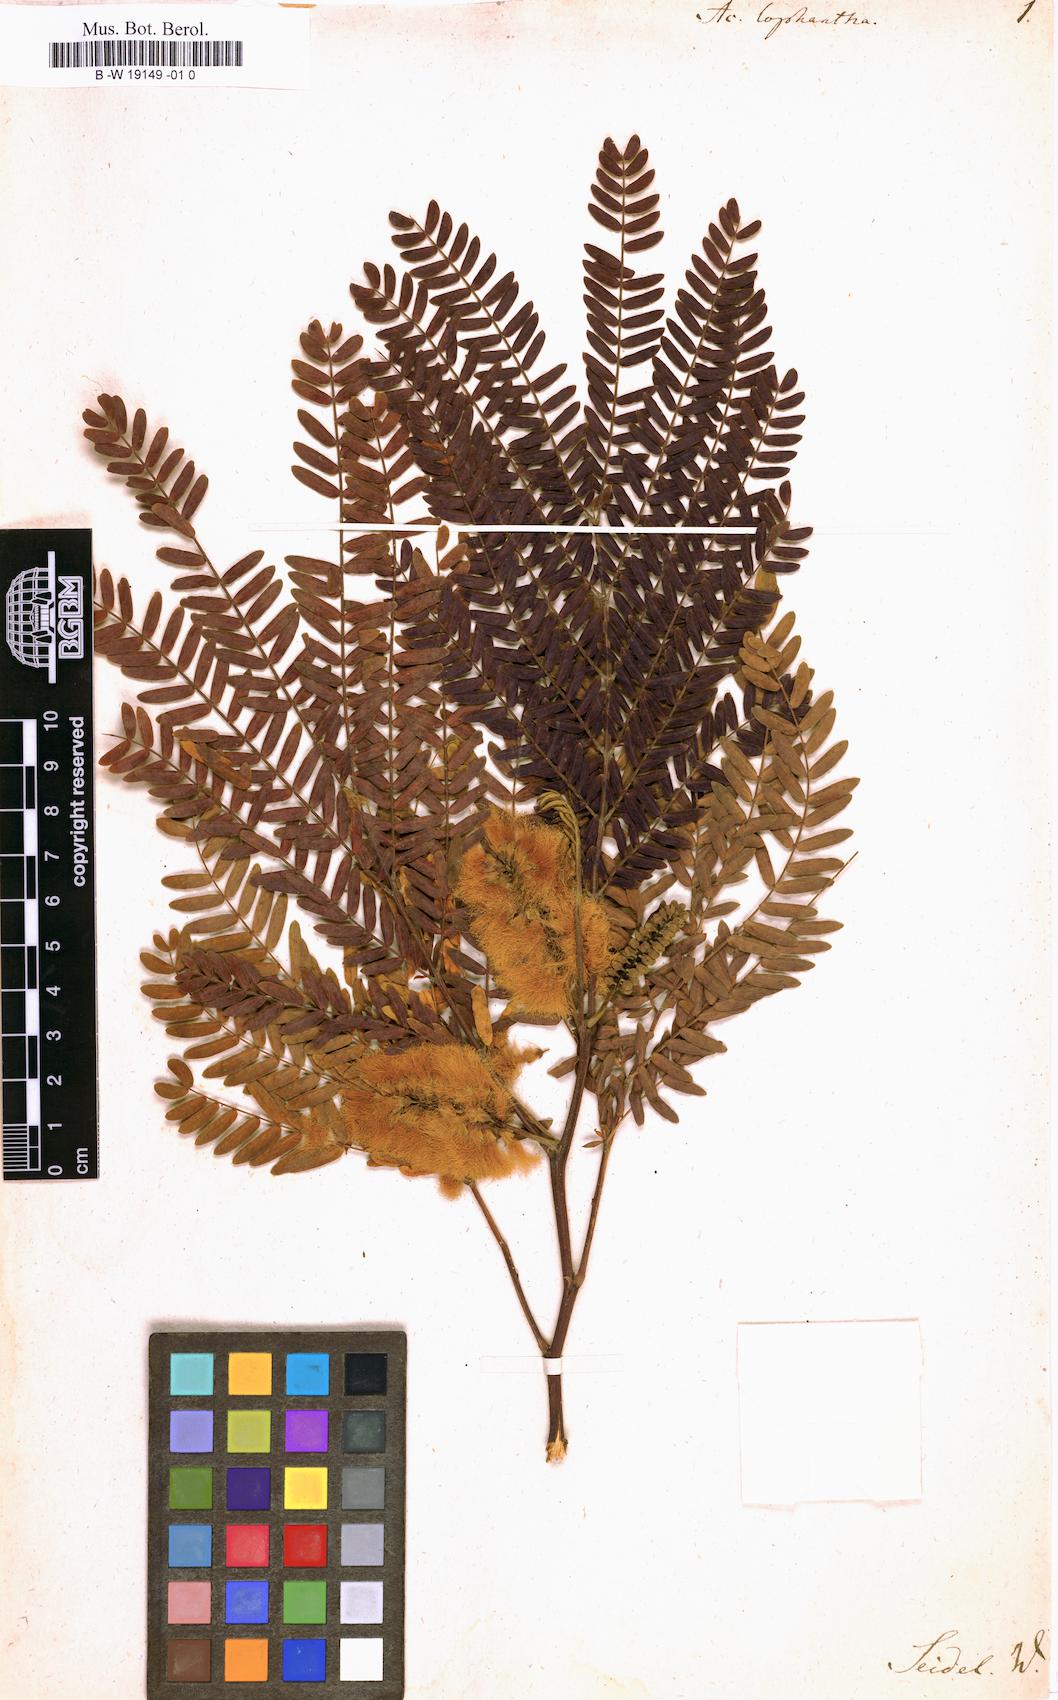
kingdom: Plantae
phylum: Tracheophyta
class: Magnoliopsida
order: Fabales
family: Fabaceae
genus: Paraserianthes
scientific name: Paraserianthes lophantha
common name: Plume albizia
